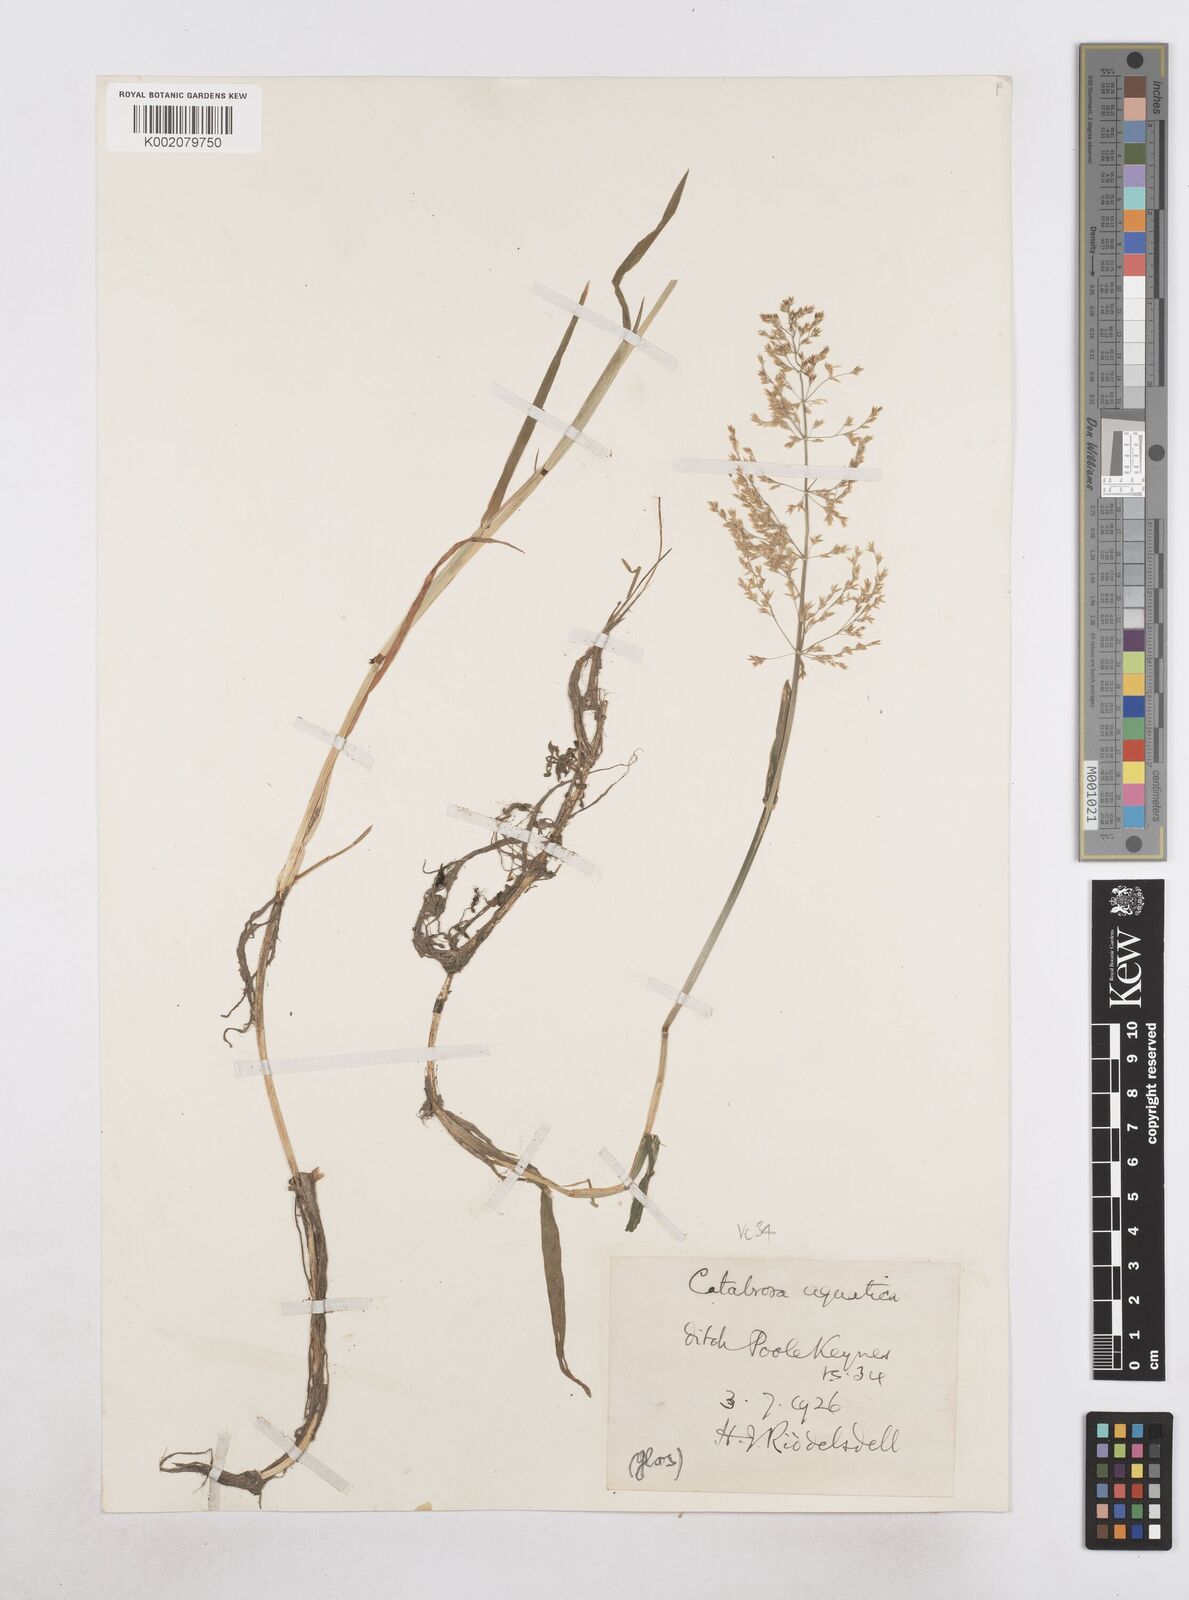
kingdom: Plantae
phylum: Tracheophyta
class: Liliopsida
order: Poales
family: Poaceae
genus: Catabrosa
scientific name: Catabrosa aquatica
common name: Whorl-grass
